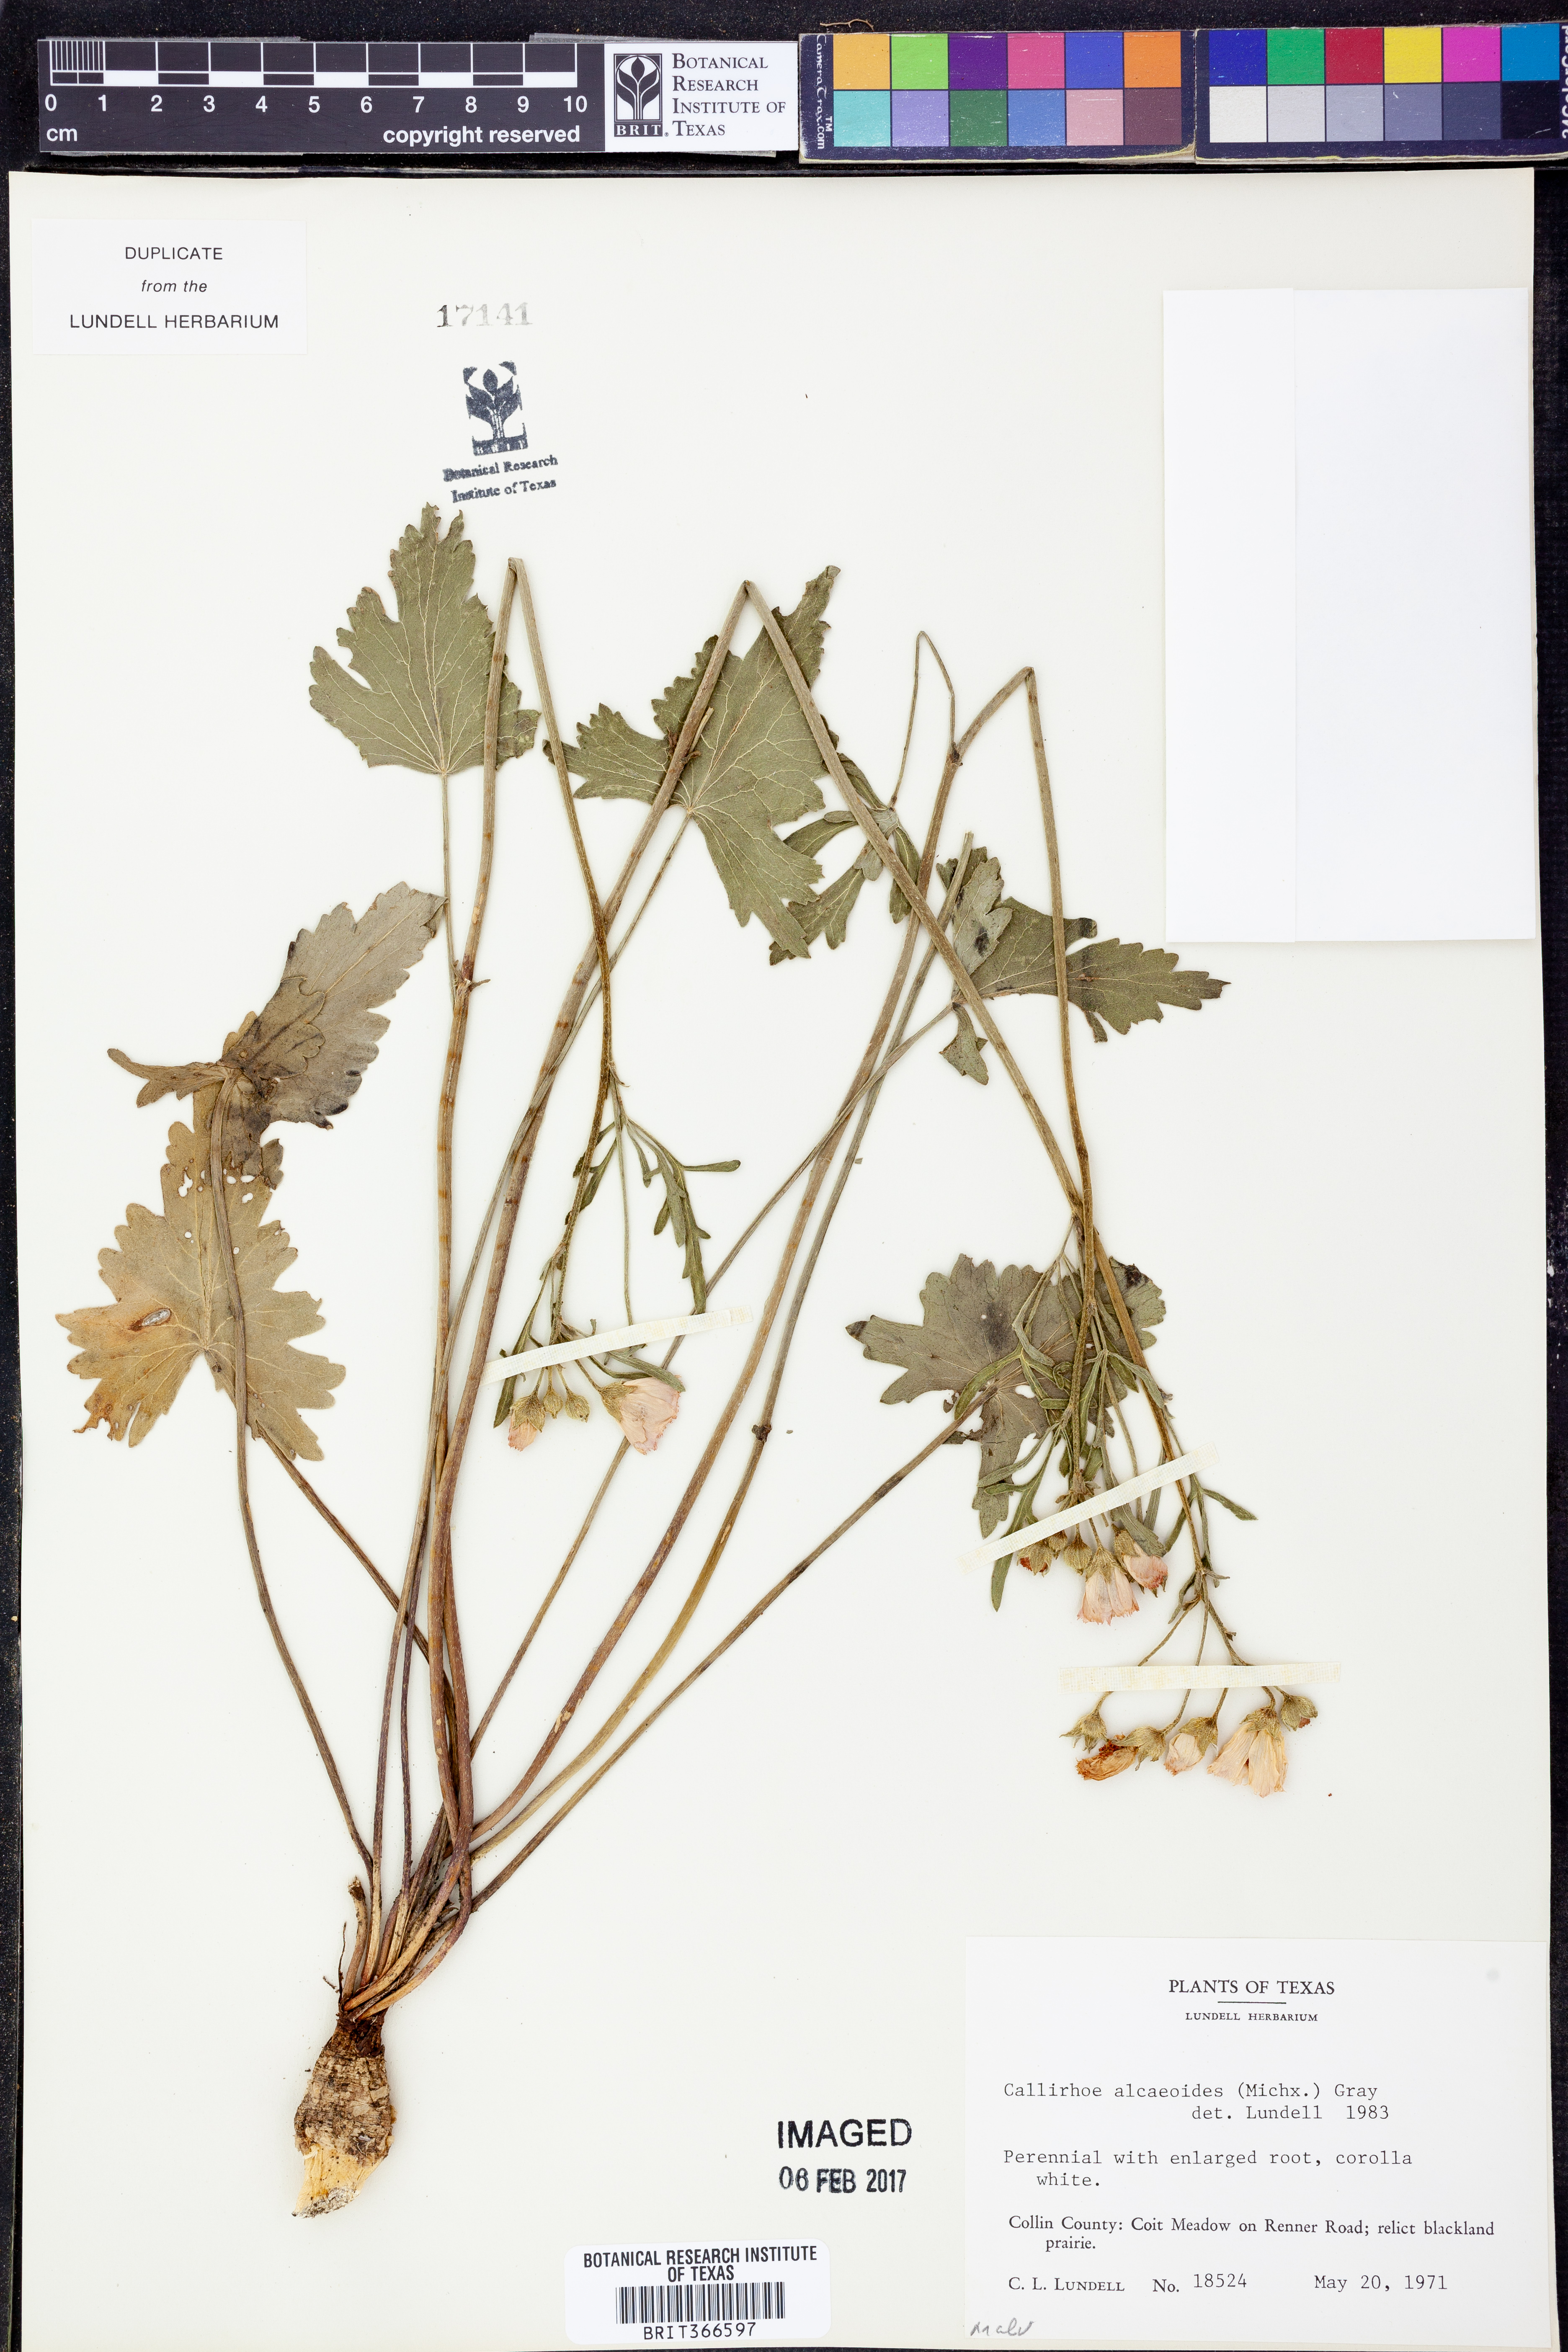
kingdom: Plantae
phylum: Tracheophyta
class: Magnoliopsida
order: Malvales
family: Malvaceae
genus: Callirhoe
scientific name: Callirhoe alcaeoides
